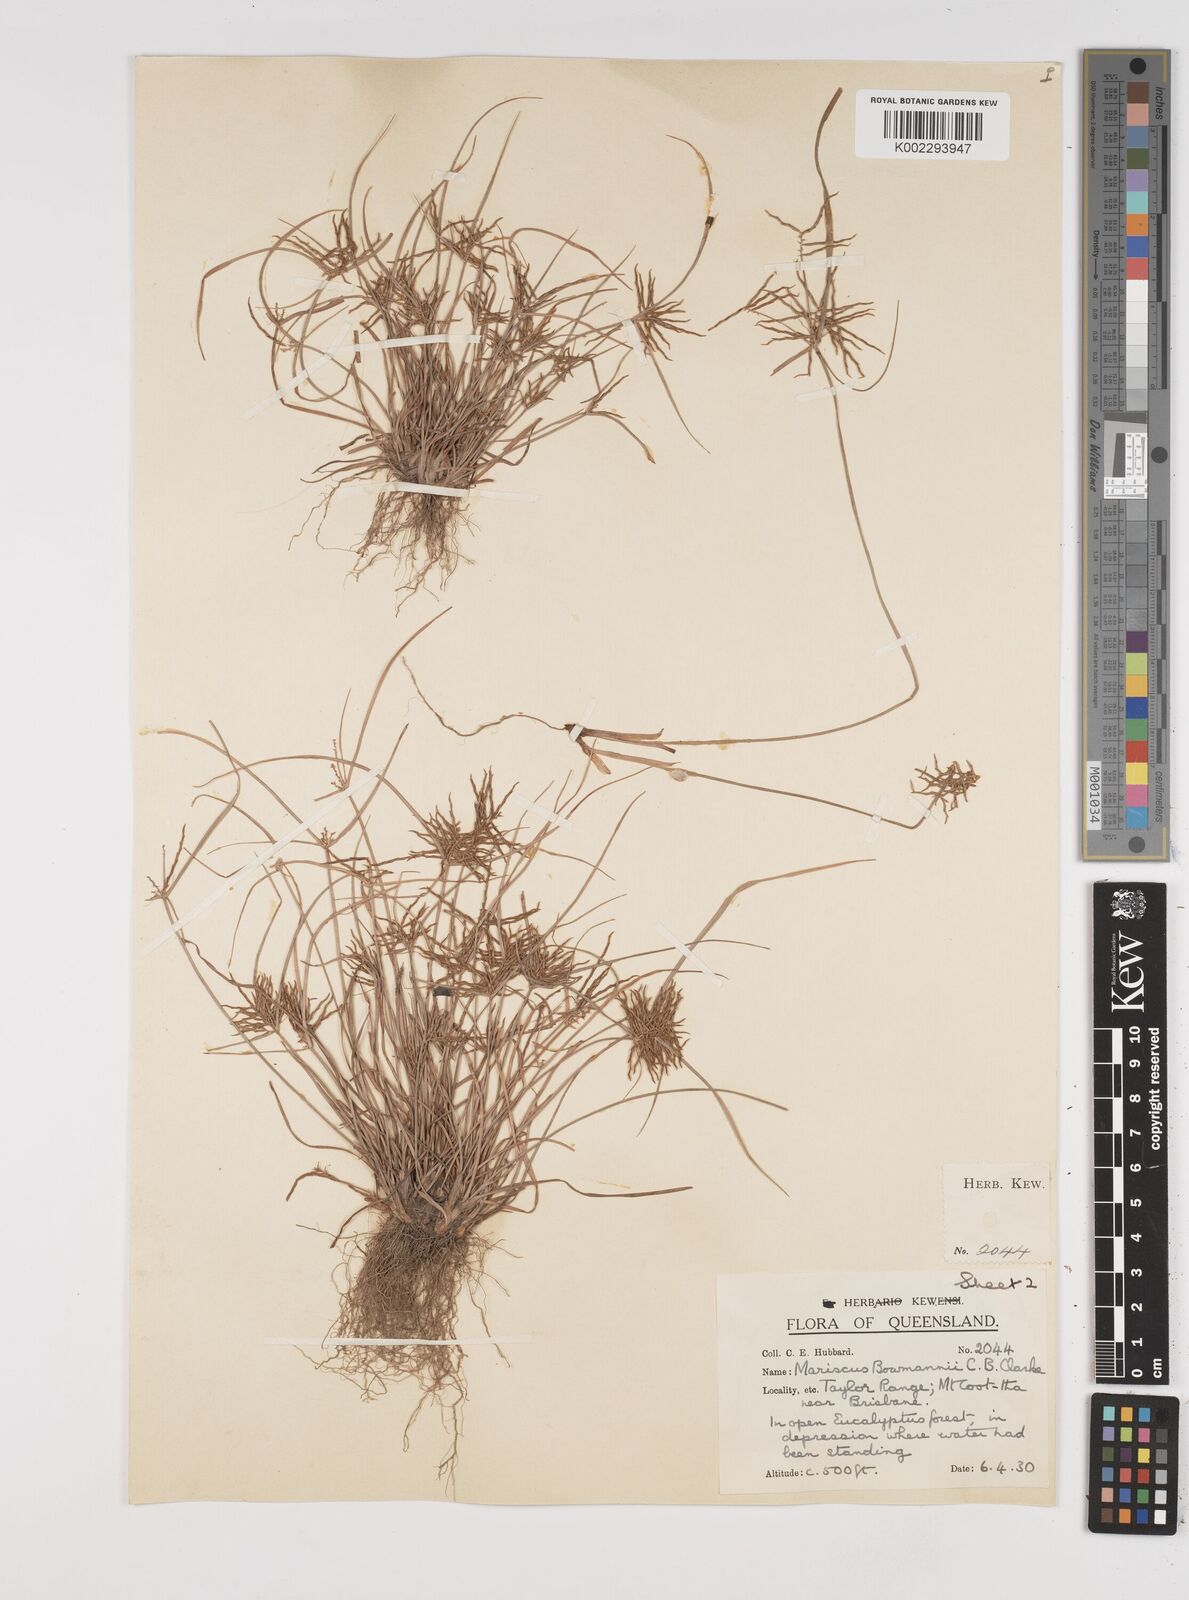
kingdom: Plantae
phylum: Tracheophyta
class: Liliopsida
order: Poales
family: Cyperaceae
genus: Cyperus
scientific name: Cyperus bowmanni
